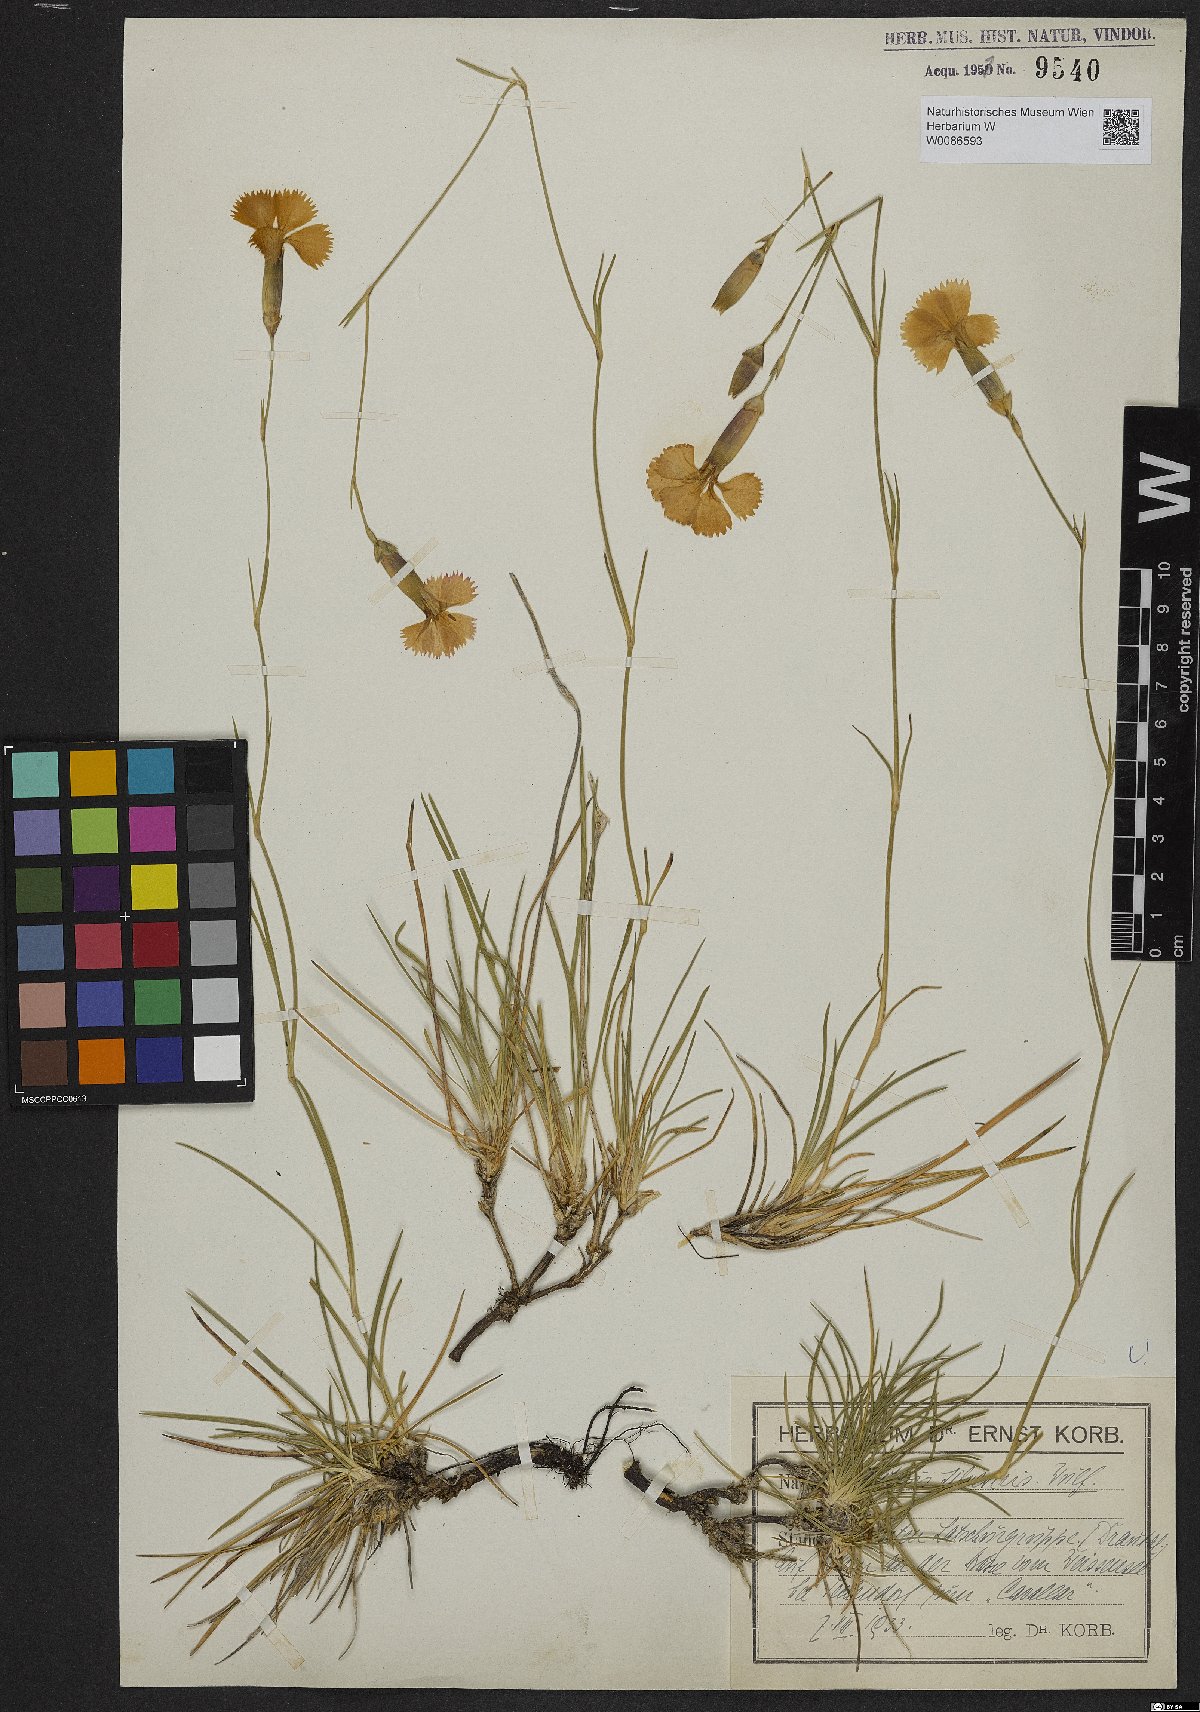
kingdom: Plantae
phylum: Tracheophyta
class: Magnoliopsida
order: Caryophyllales
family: Caryophyllaceae
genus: Dianthus
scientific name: Dianthus sylvestris
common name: Wood pink
